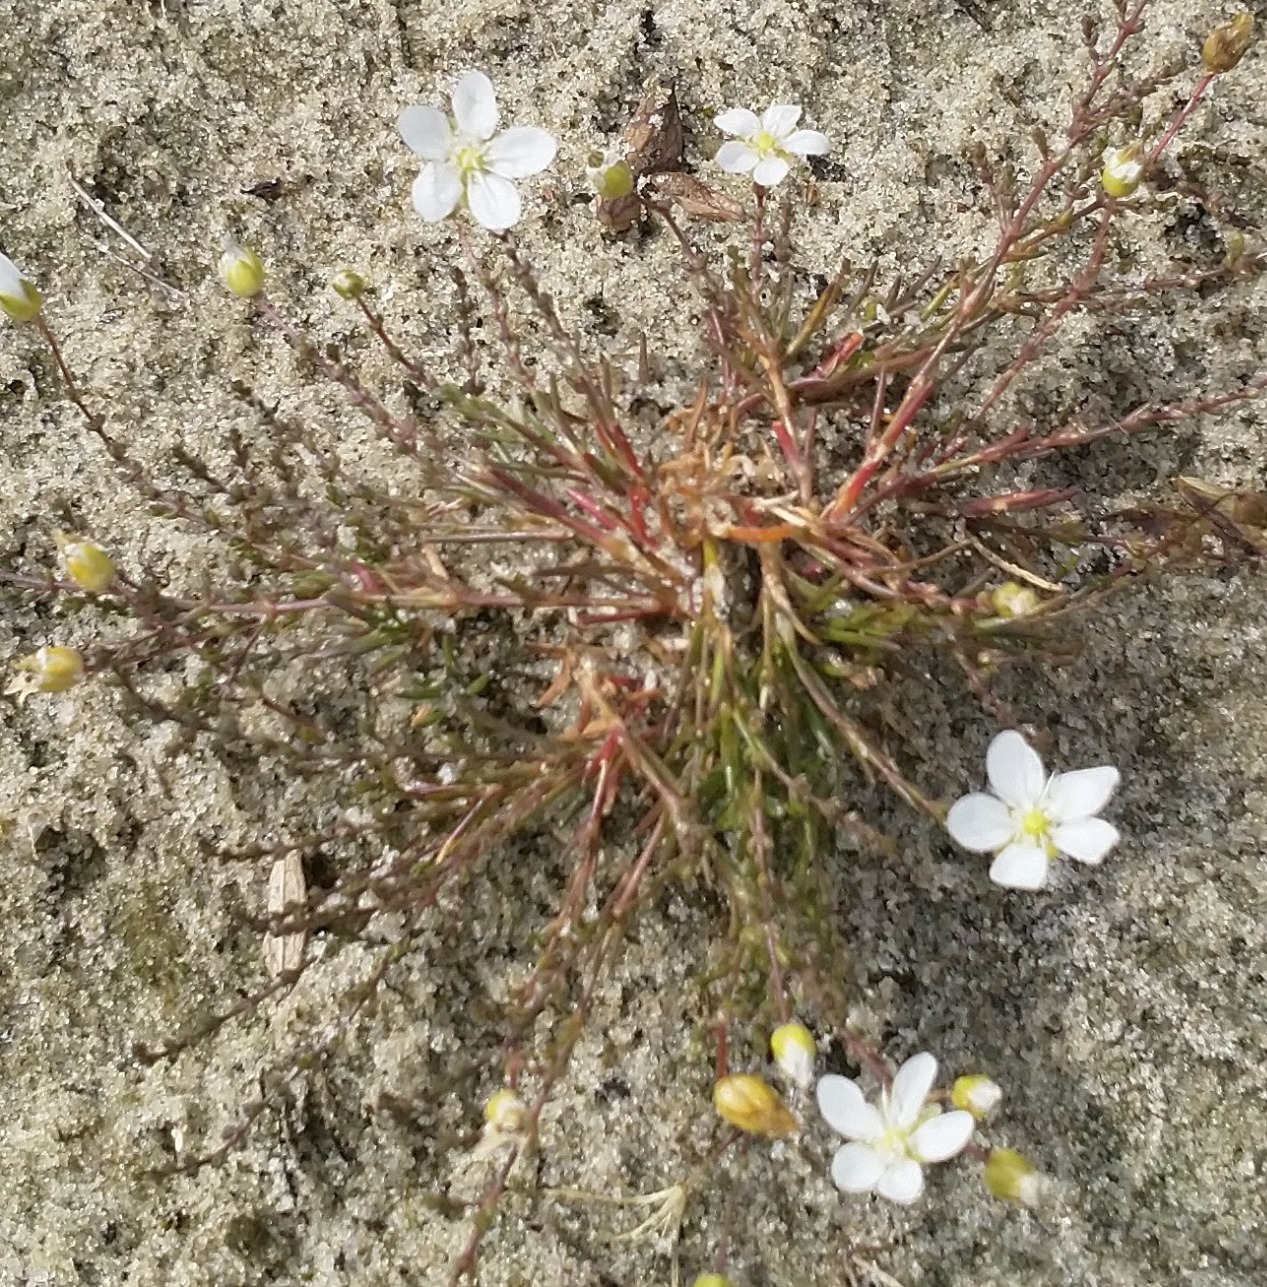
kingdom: Plantae
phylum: Tracheophyta
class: Magnoliopsida
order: Caryophyllales
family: Caryophyllaceae
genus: Sagina
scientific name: Sagina nodosa
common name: Knude-firling
